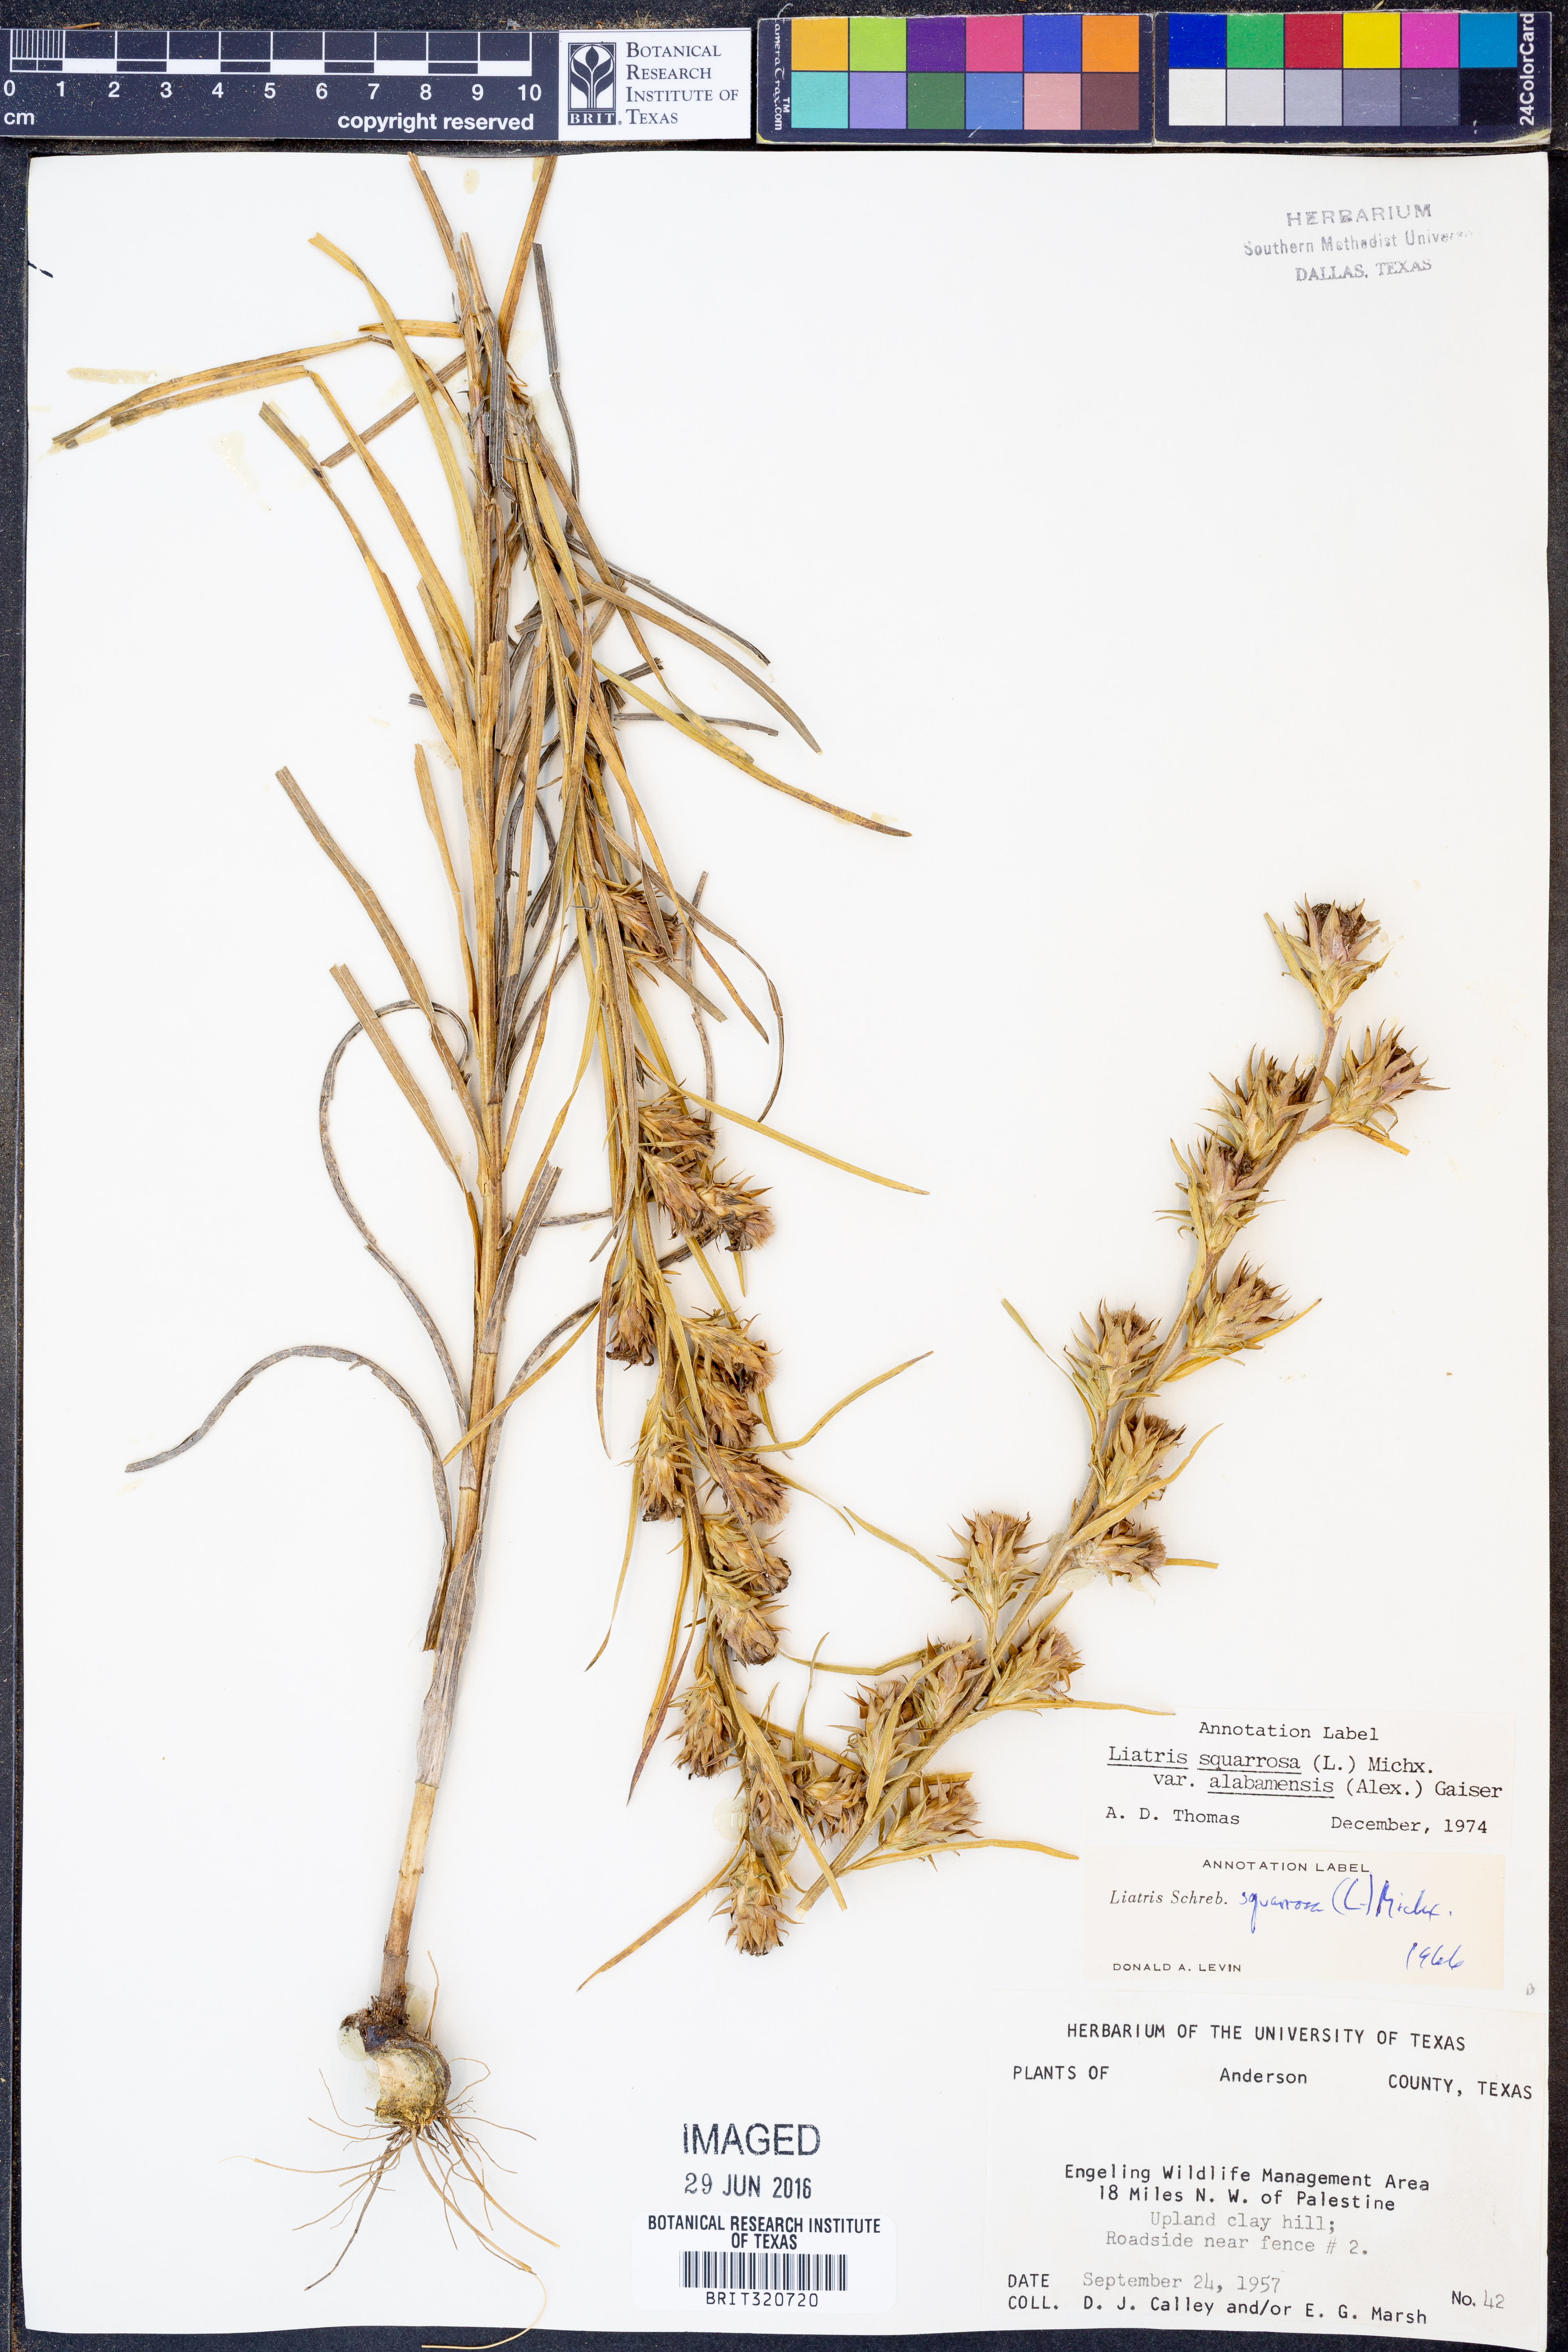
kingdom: Plantae
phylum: Tracheophyta
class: Magnoliopsida
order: Asterales
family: Asteraceae
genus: Liatris
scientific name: Liatris squarrosa
